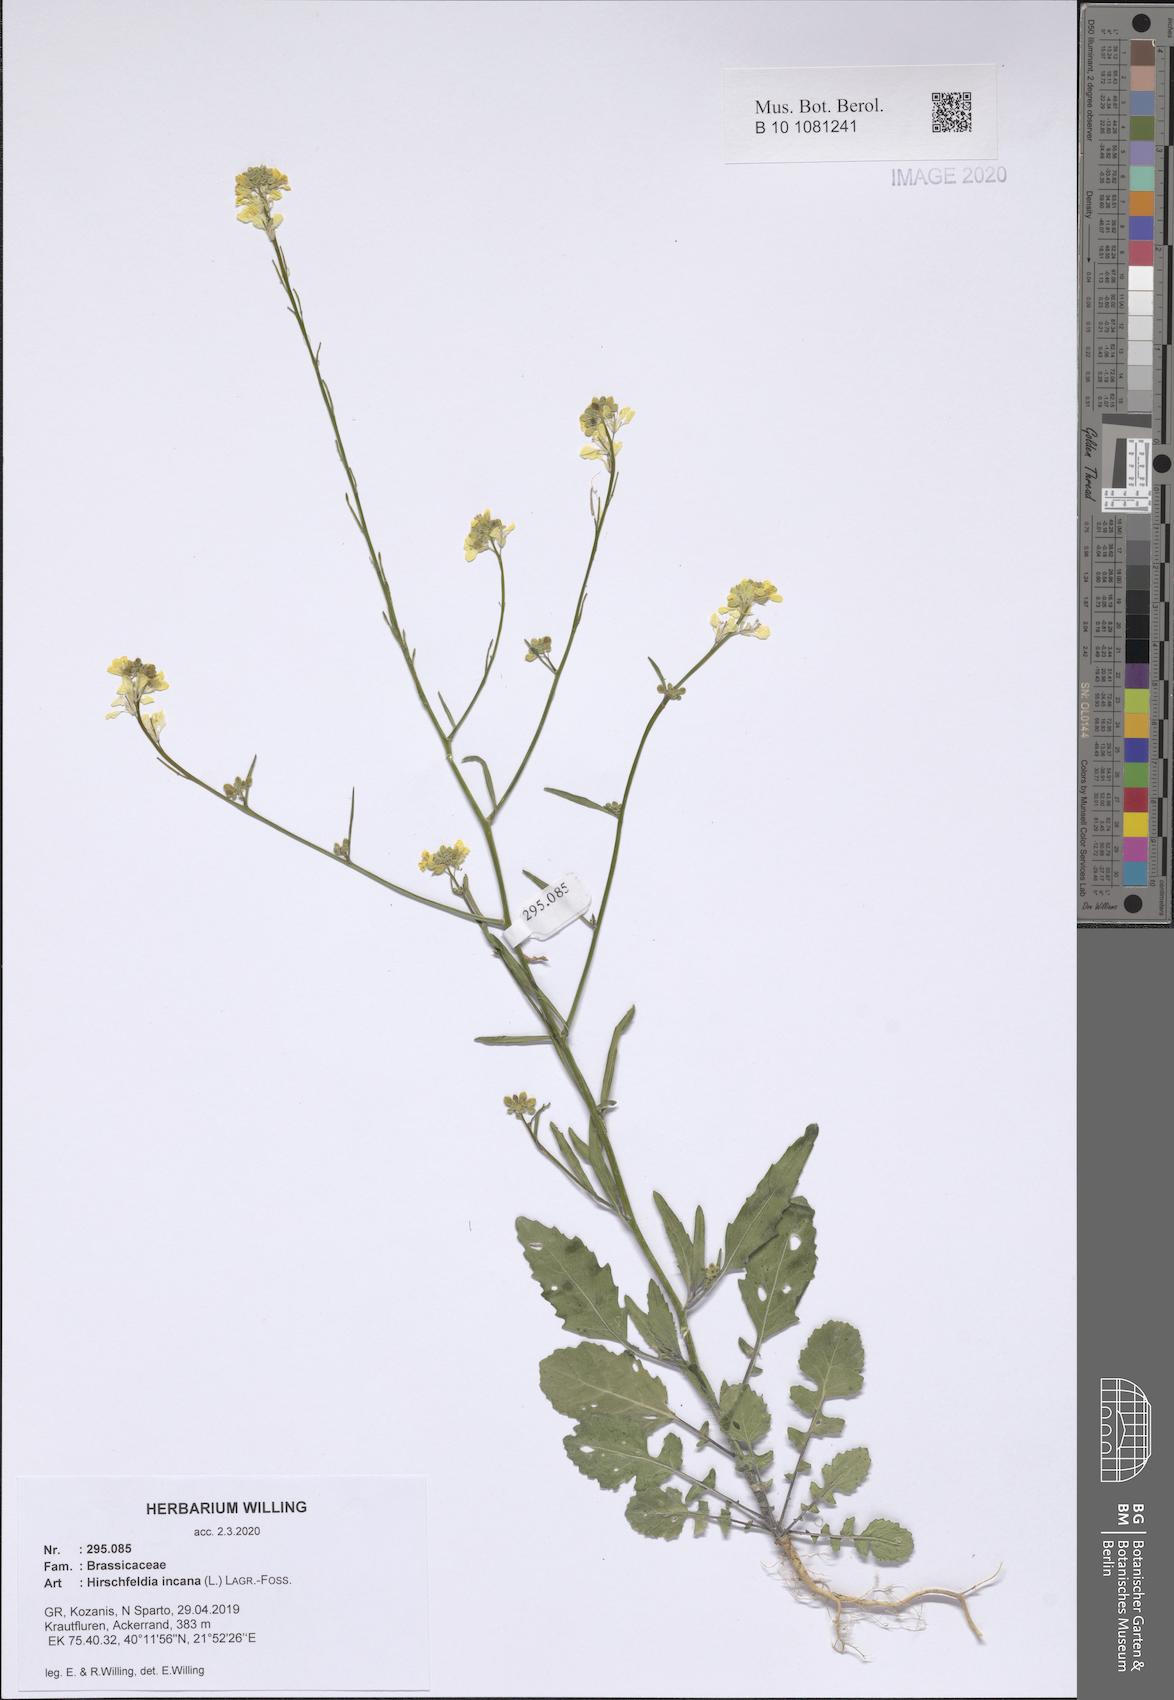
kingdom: Plantae
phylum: Tracheophyta
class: Magnoliopsida
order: Brassicales
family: Brassicaceae
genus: Hirschfeldia
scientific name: Hirschfeldia incana
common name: Hoary mustard
